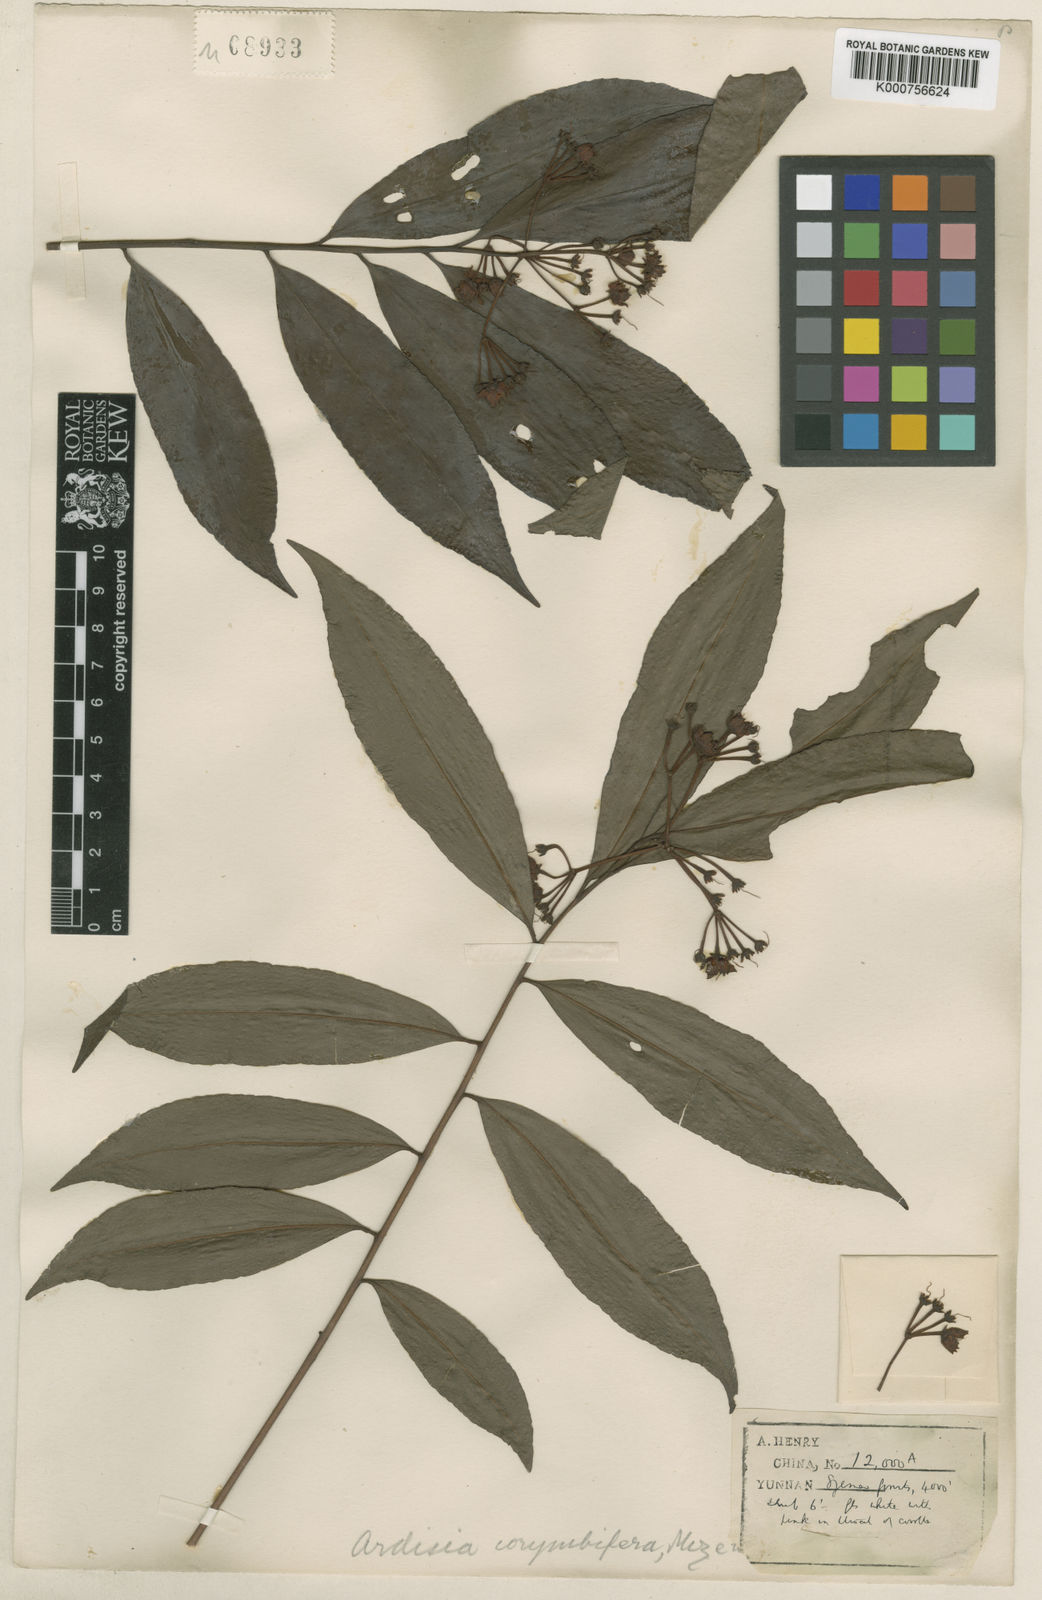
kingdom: Plantae
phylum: Tracheophyta
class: Magnoliopsida
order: Ericales
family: Primulaceae
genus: Ardisia
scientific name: Ardisia corymbifera
